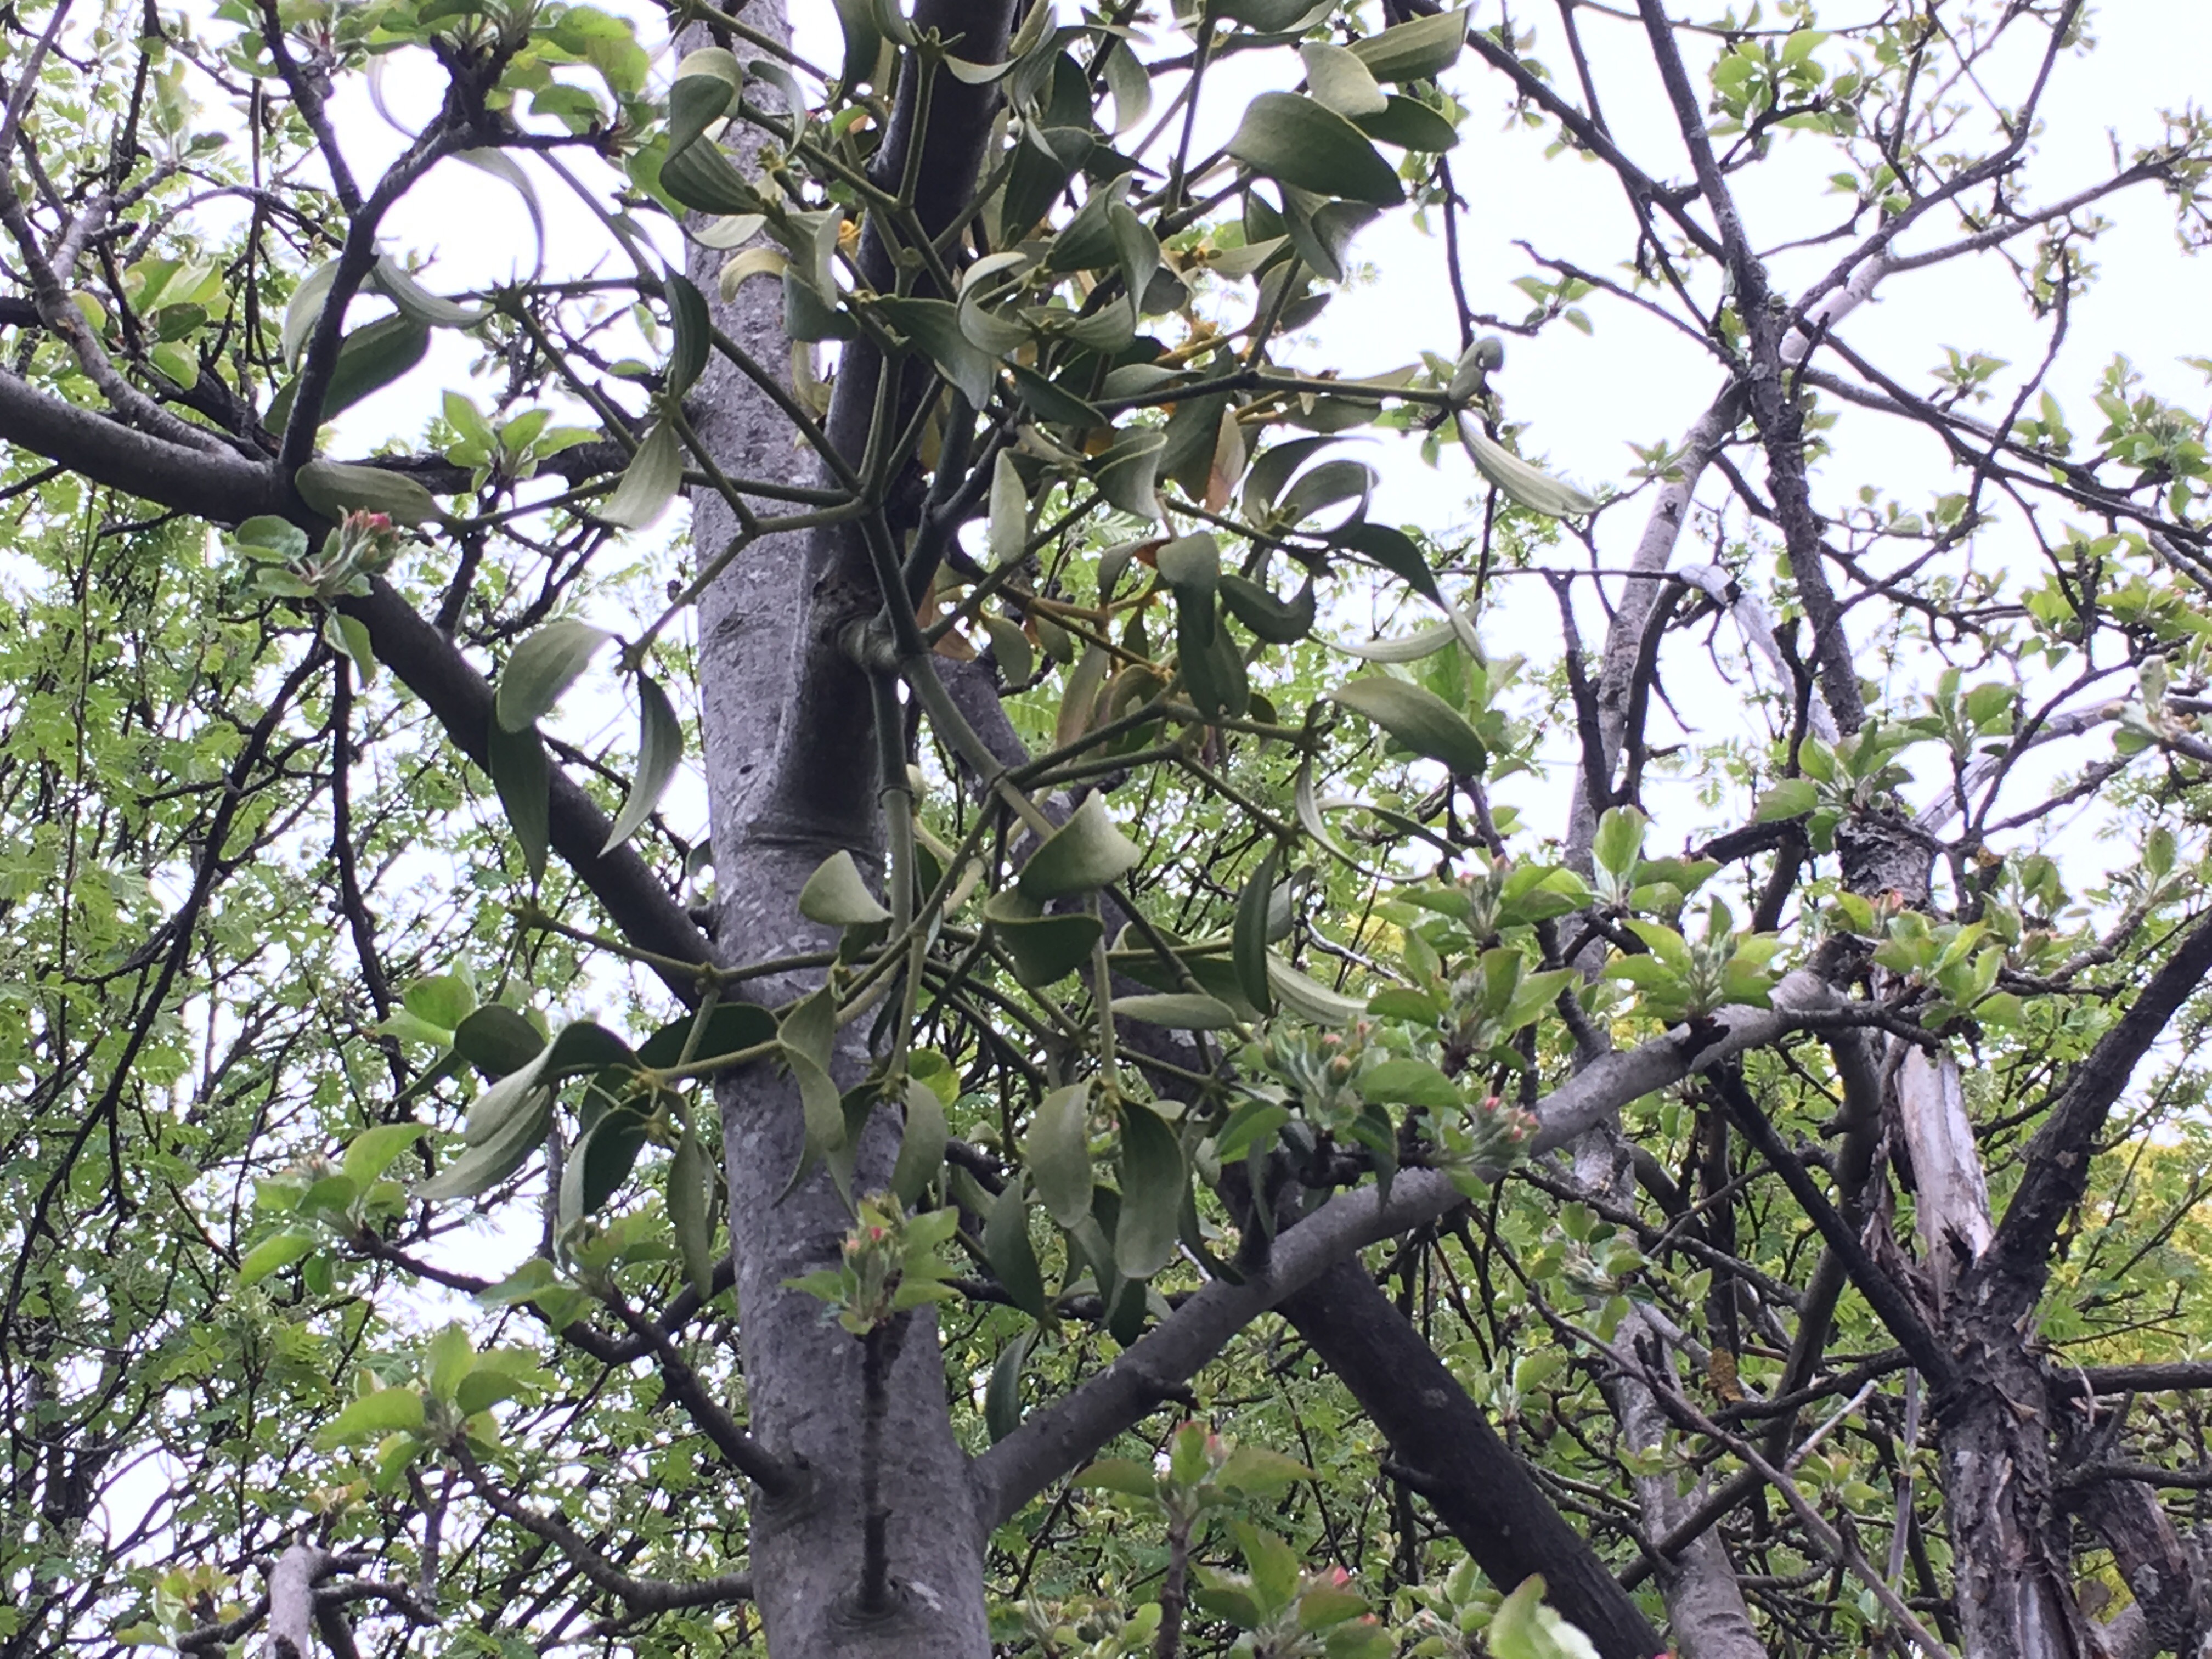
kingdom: Plantae
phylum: Tracheophyta
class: Magnoliopsida
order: Santalales
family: Viscaceae
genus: Viscum
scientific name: Viscum album
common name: Mistletoe
